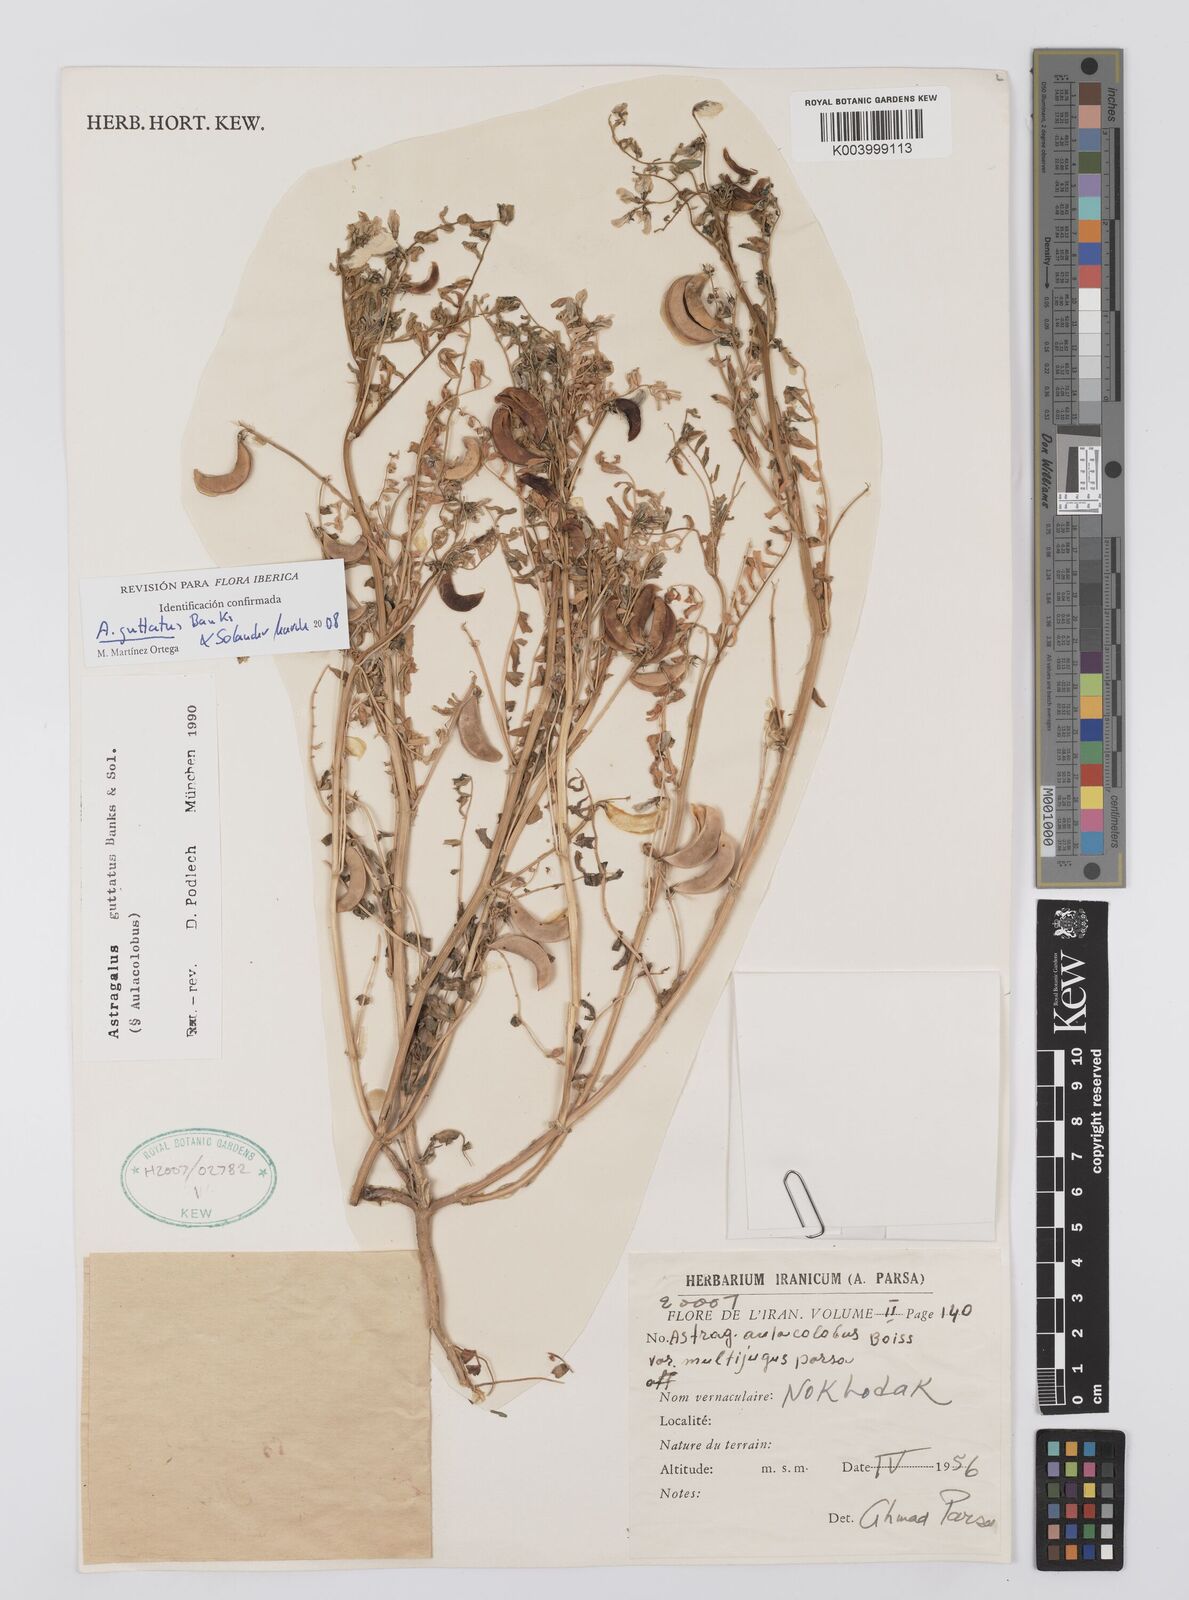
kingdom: Plantae
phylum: Tracheophyta
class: Magnoliopsida
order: Fabales
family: Fabaceae
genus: Astragalus
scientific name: Astragalus guttatus
